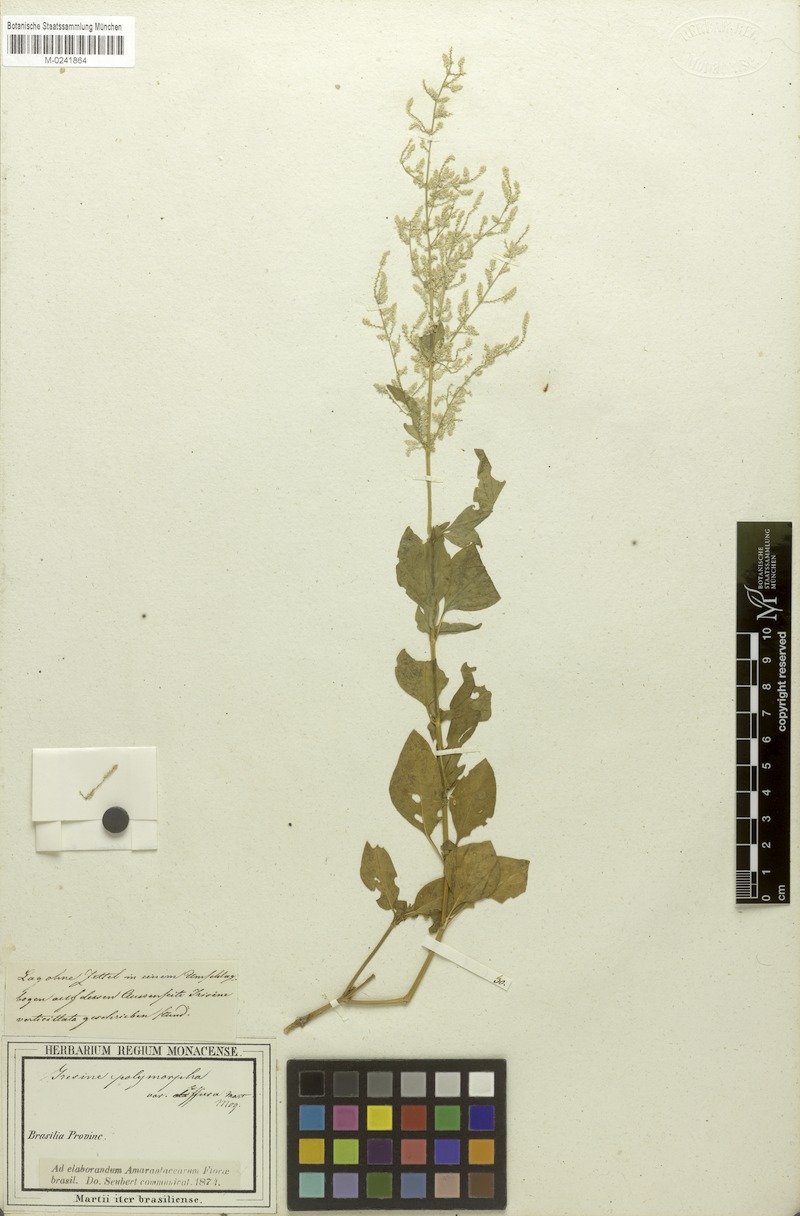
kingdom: Plantae
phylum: Tracheophyta
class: Magnoliopsida
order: Caryophyllales
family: Amaranthaceae
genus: Iresine
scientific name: Iresine diffusa
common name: Juba's-bush
